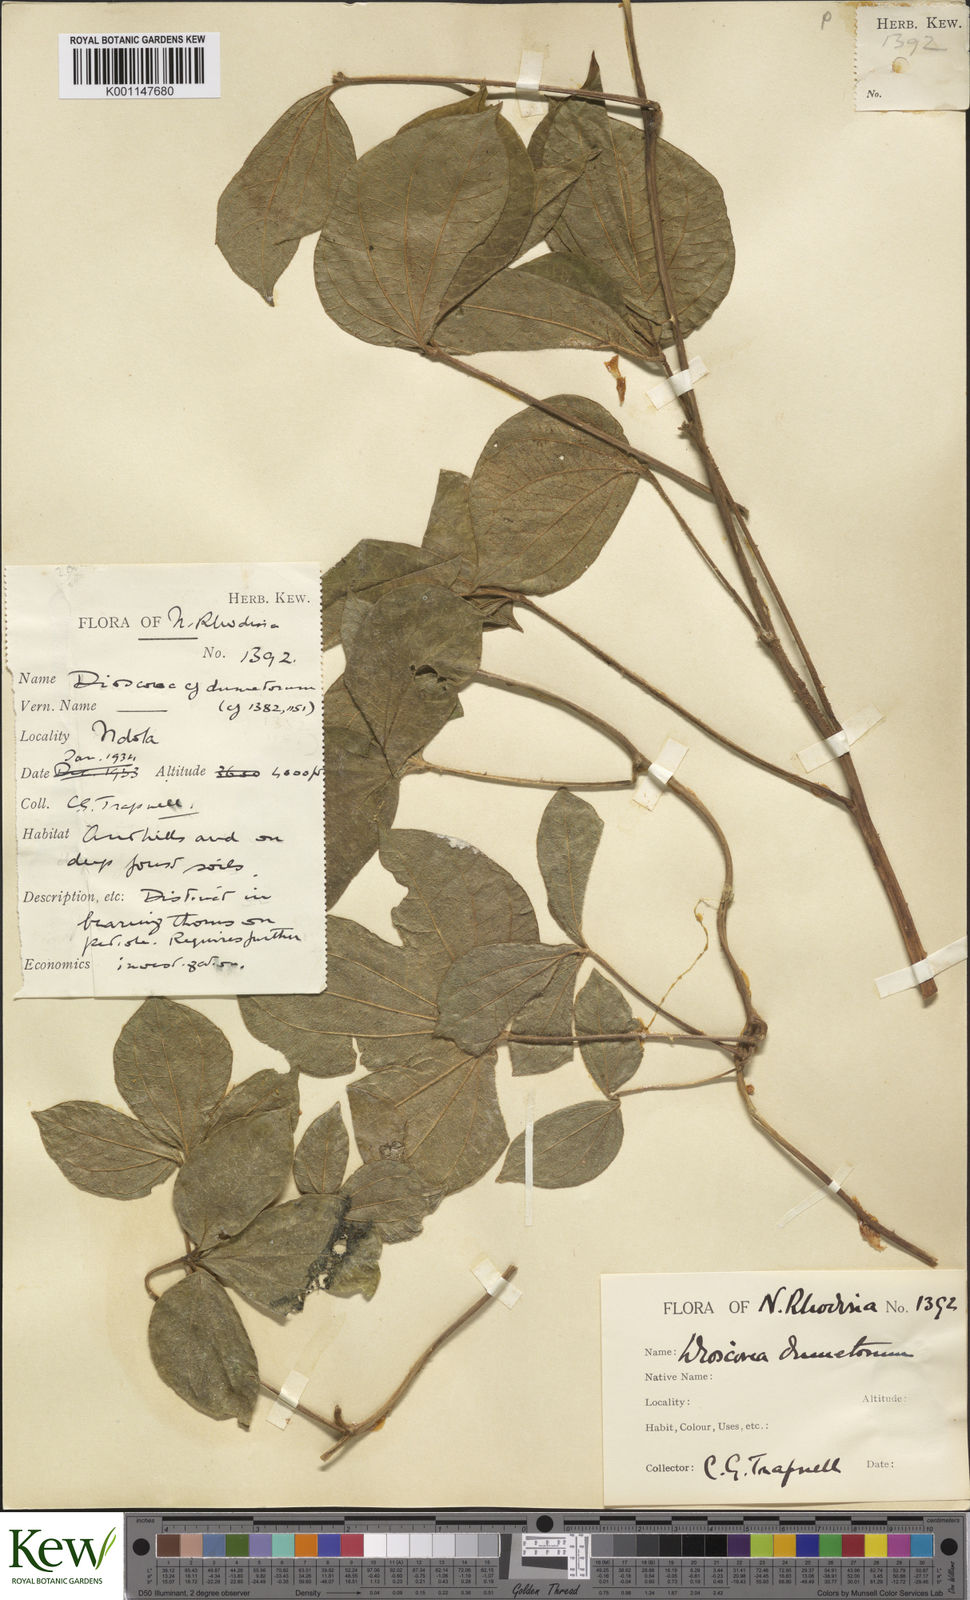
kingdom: Plantae
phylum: Tracheophyta
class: Liliopsida
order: Dioscoreales
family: Dioscoreaceae
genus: Dioscorea
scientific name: Dioscorea dumetorum
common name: African bitter yam
